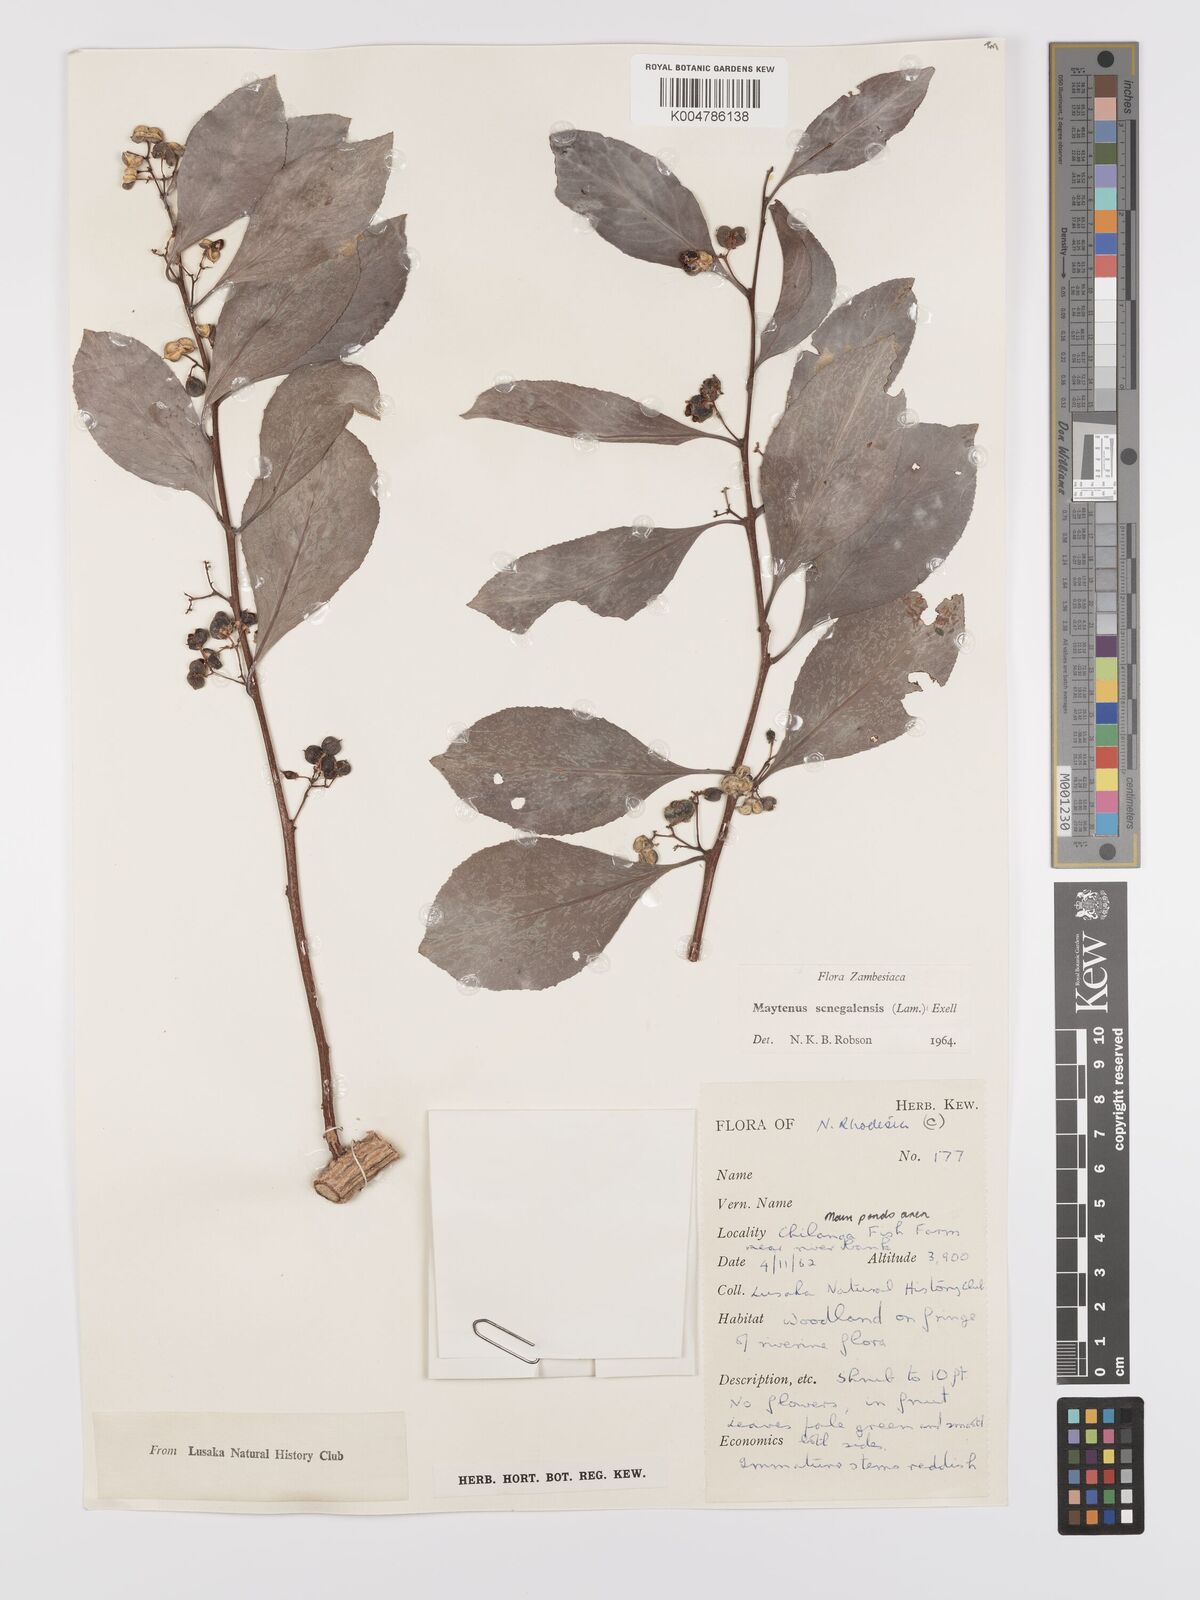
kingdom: Plantae
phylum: Tracheophyta
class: Magnoliopsida
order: Celastrales
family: Celastraceae
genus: Gymnosporia
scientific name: Gymnosporia senegalensis
